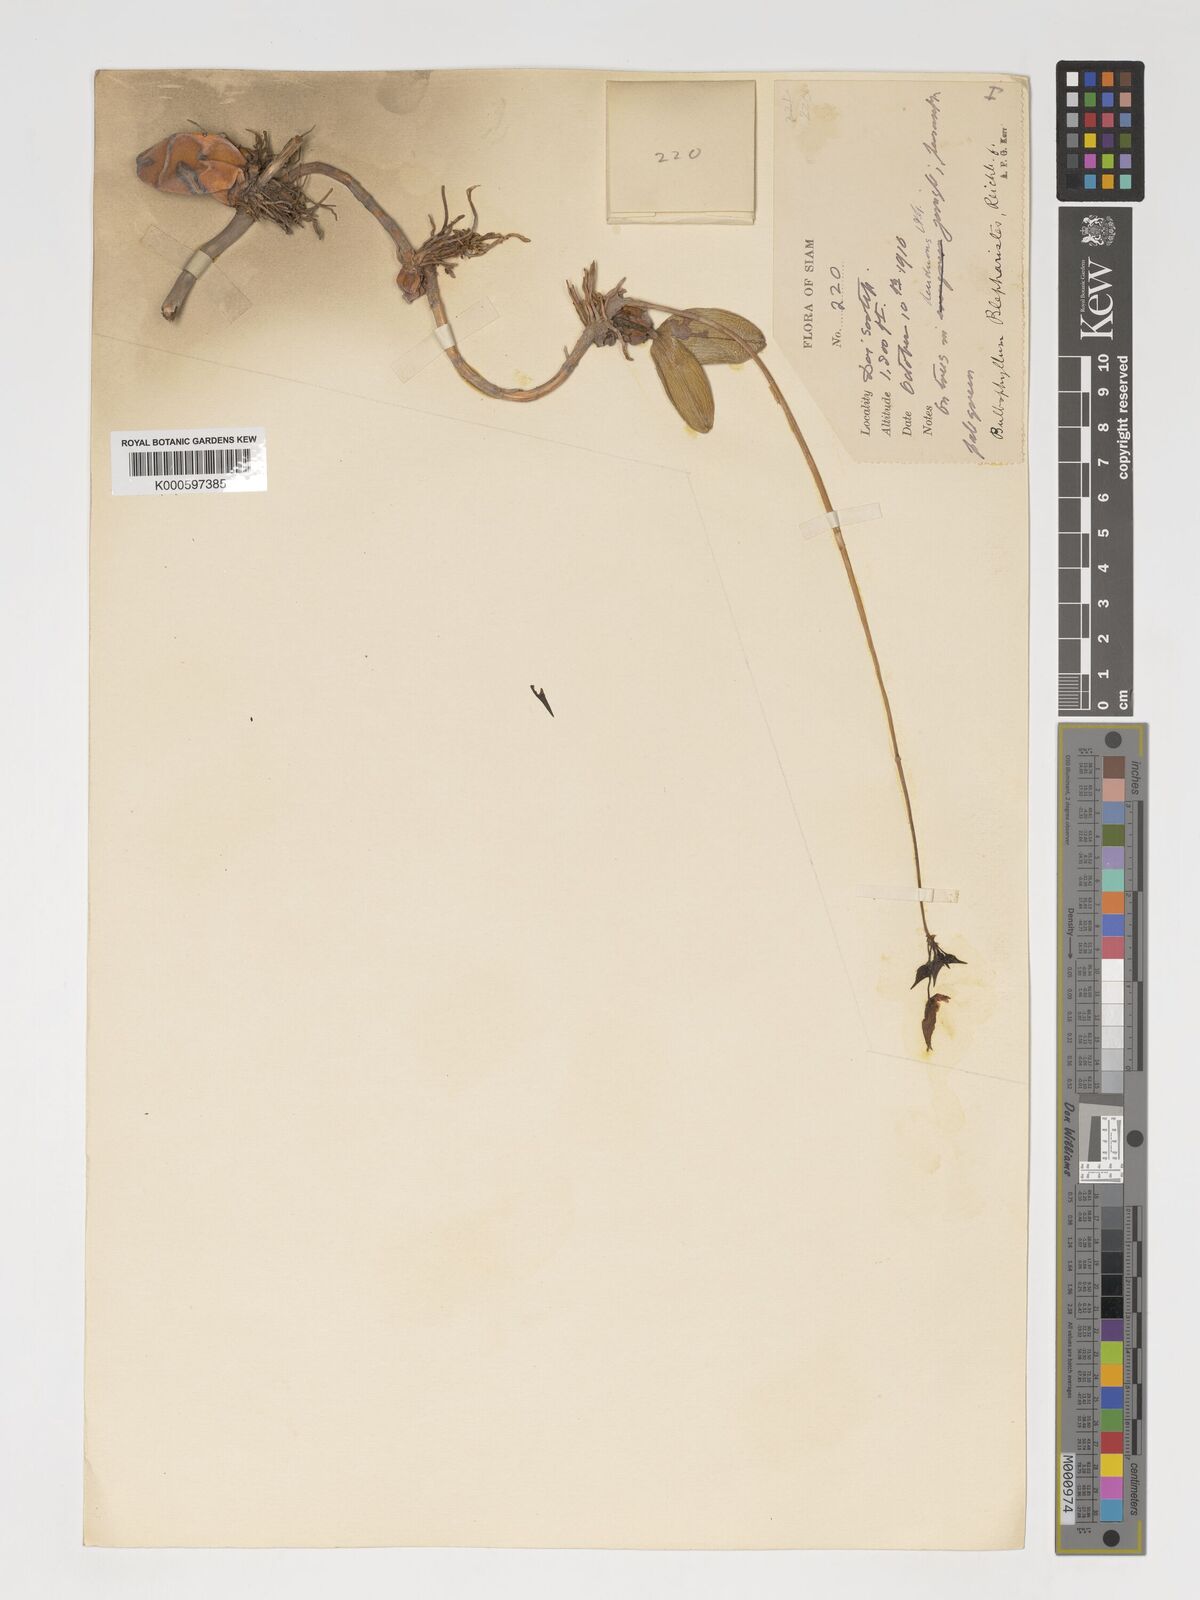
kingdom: Plantae
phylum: Tracheophyta
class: Liliopsida
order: Asparagales
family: Orchidaceae
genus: Bulbophyllum
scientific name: Bulbophyllum blepharistes
